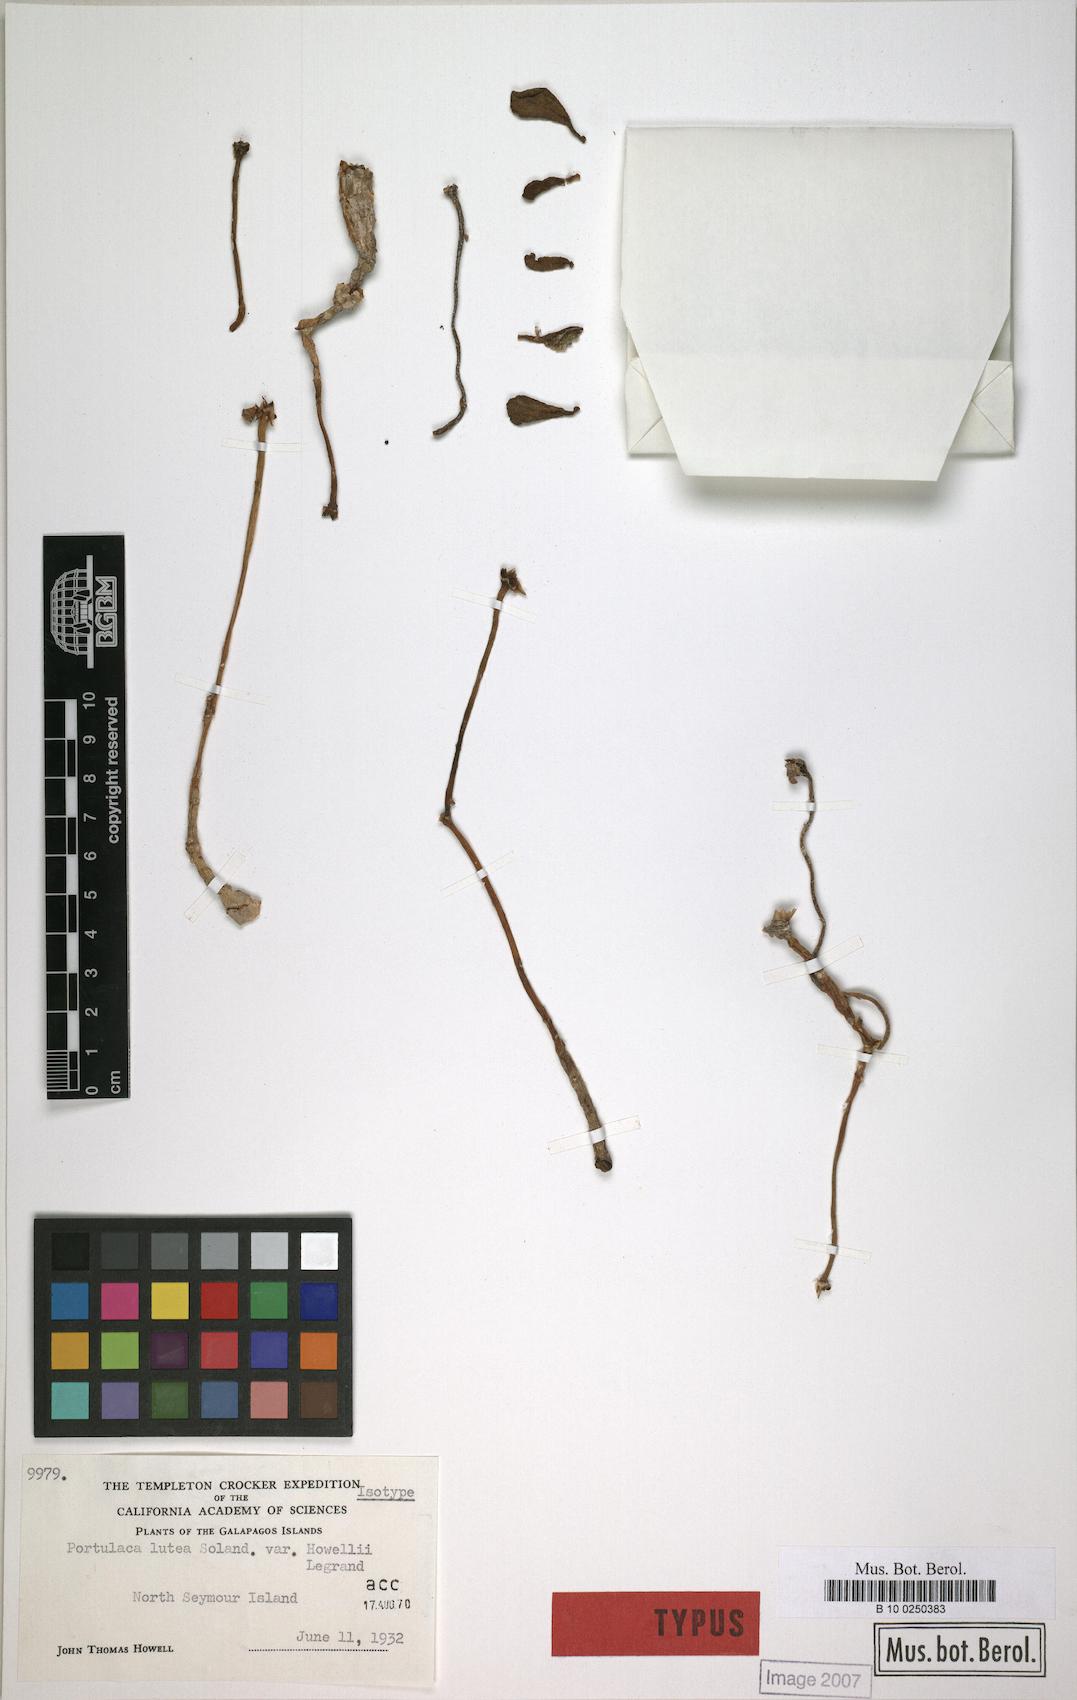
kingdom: Plantae
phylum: Tracheophyta
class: Magnoliopsida
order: Caryophyllales
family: Portulacaceae
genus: Portulaca
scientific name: Portulaca howellii
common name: Galapagos purslane
